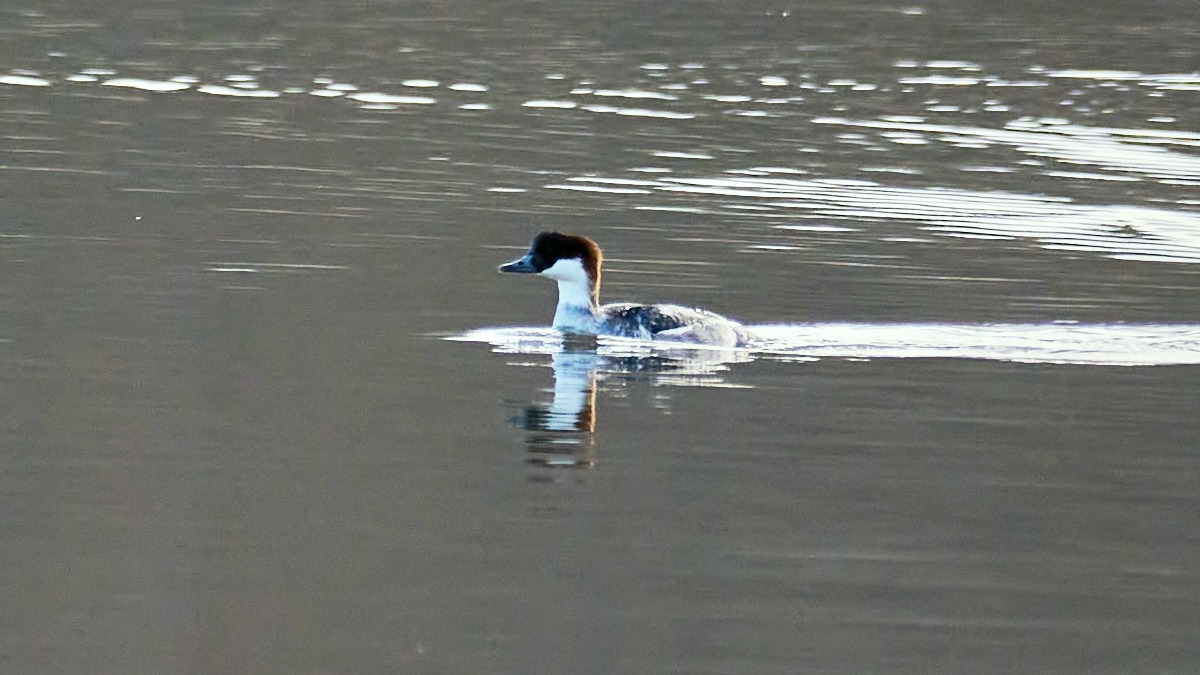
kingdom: Animalia
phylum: Chordata
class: Aves
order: Anseriformes
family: Anatidae
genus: Mergellus
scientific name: Mergellus albellus
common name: Lille skallesluger
